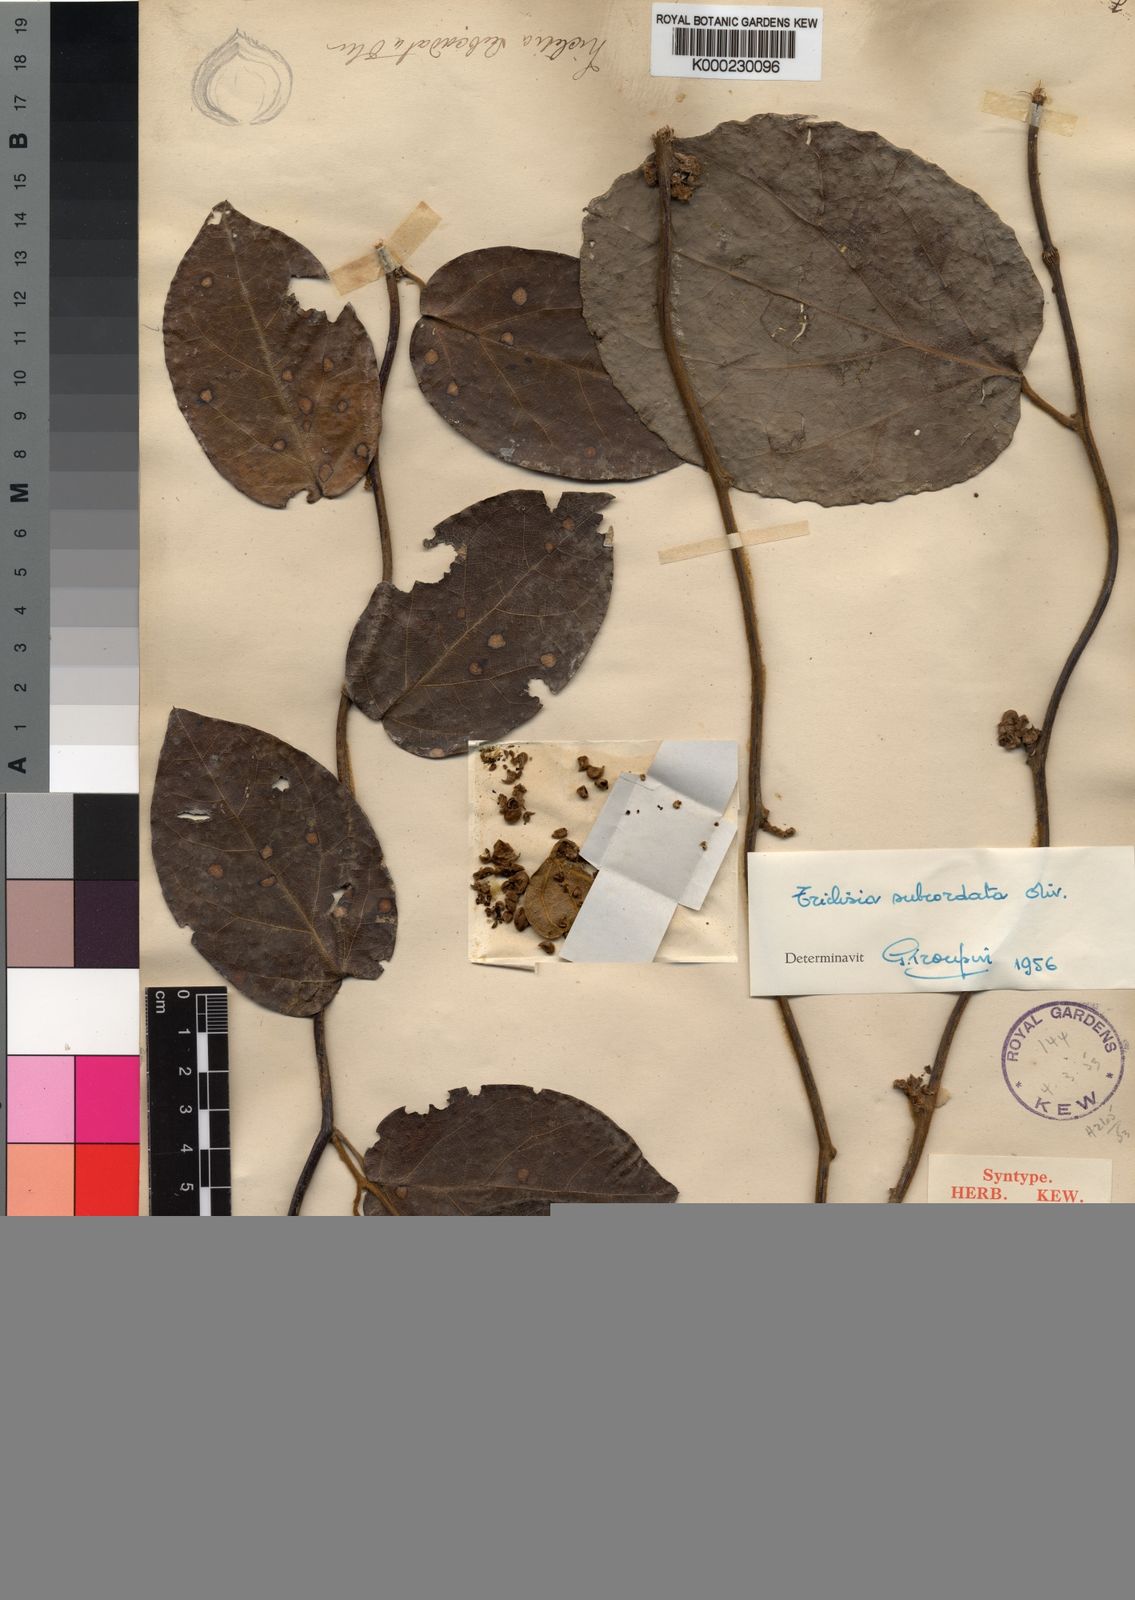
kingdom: Plantae
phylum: Tracheophyta
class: Magnoliopsida
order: Ranunculales
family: Menispermaceae
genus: Triclisia
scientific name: Triclisia subcordata
